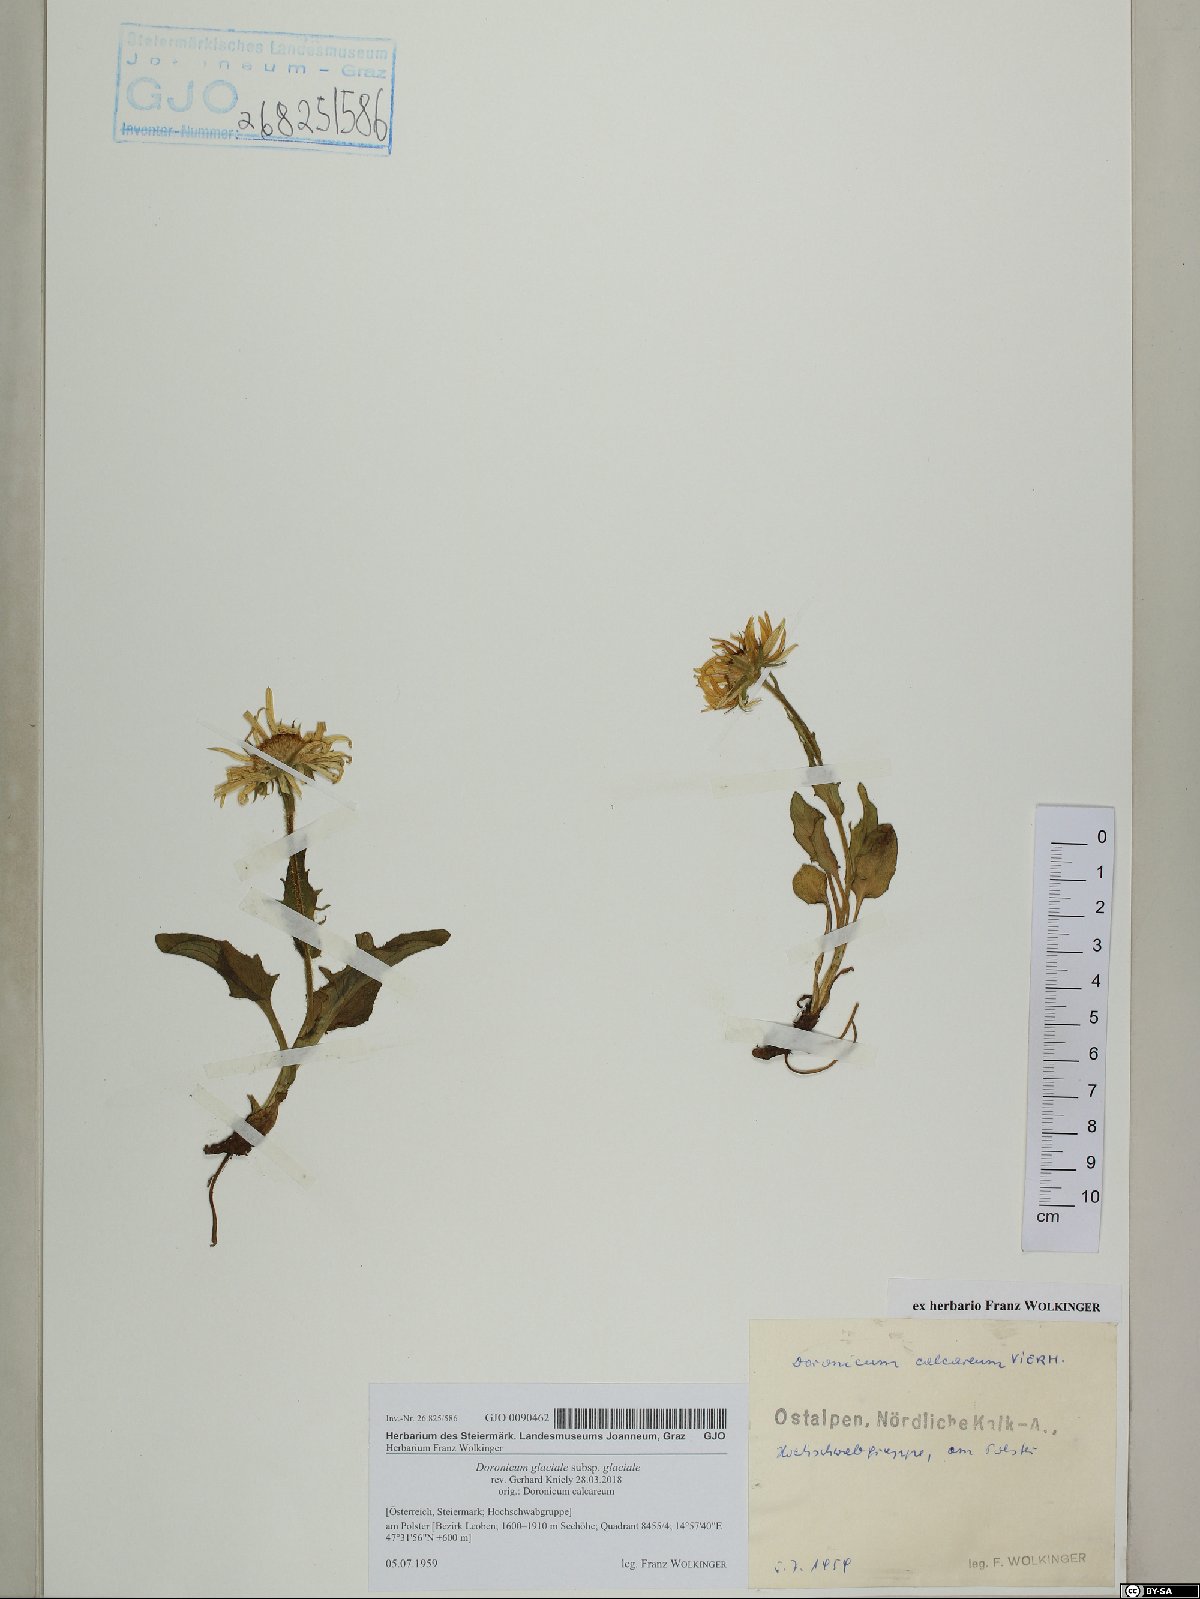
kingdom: Plantae
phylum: Tracheophyta
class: Magnoliopsida
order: Asterales
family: Asteraceae
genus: Doronicum
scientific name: Doronicum glaciale
